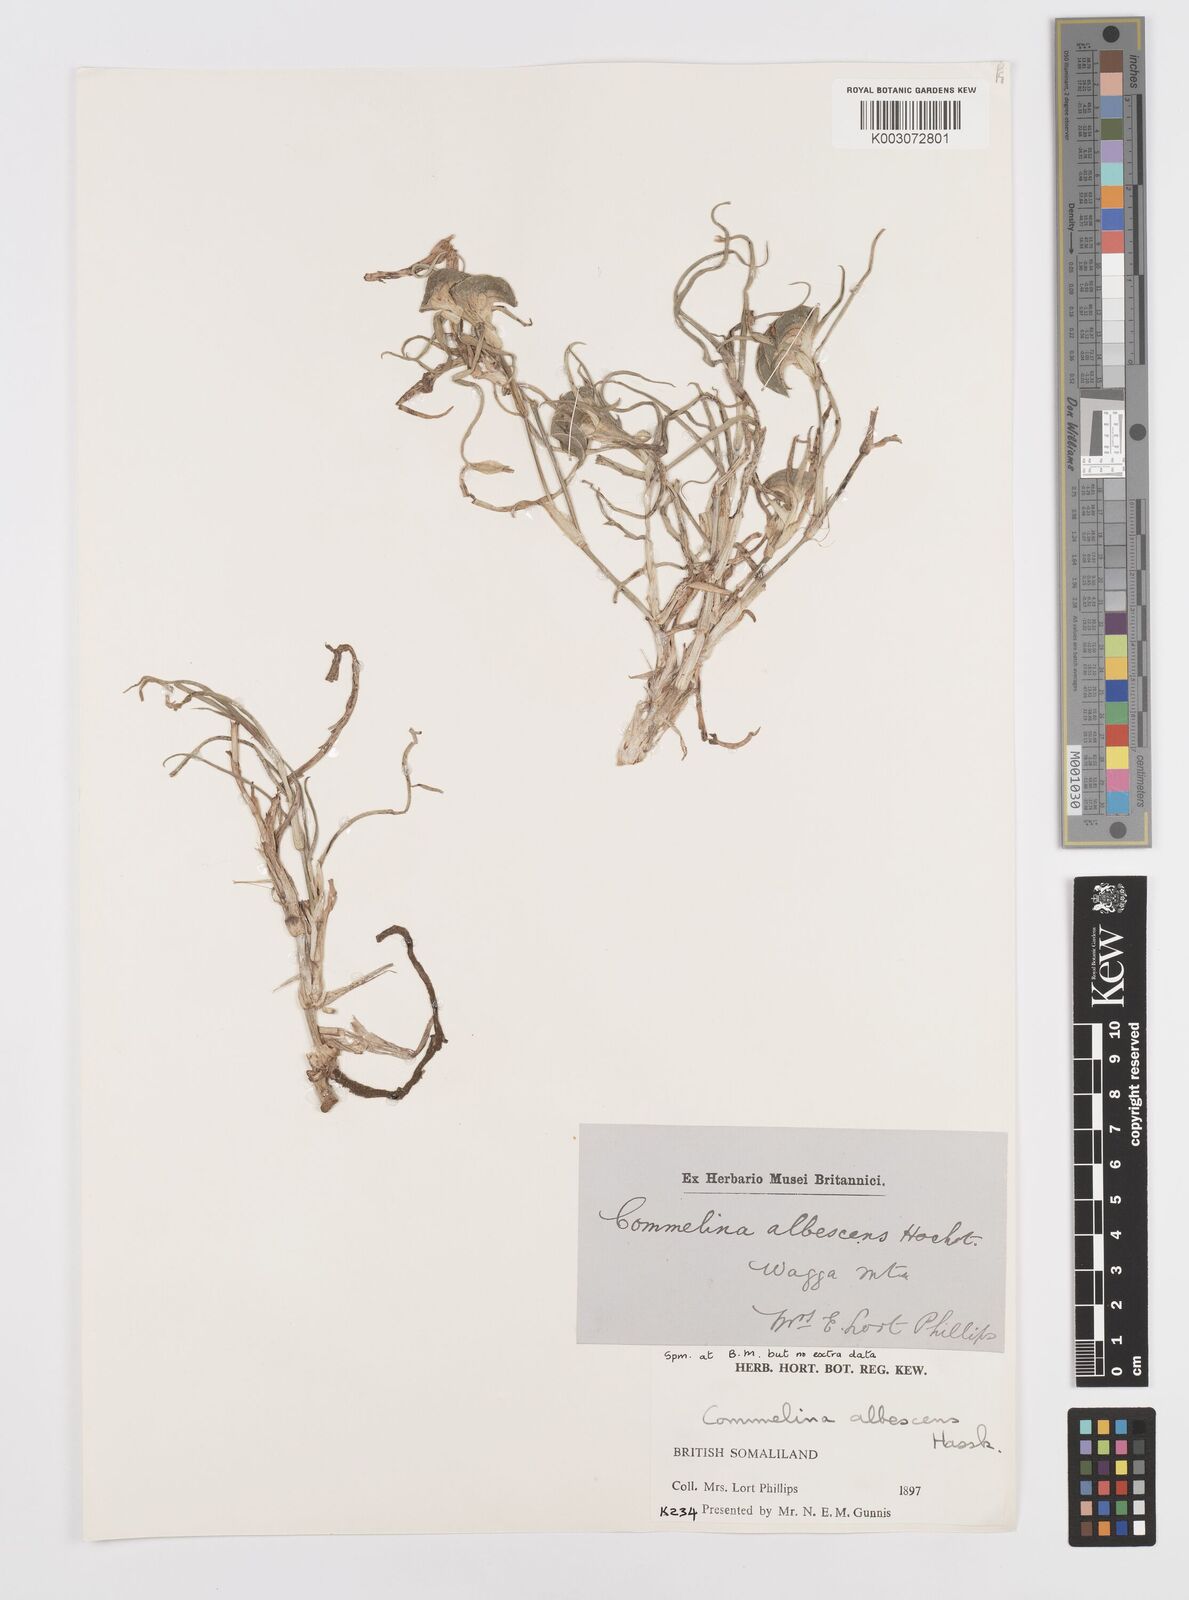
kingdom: Plantae
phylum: Tracheophyta
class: Liliopsida
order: Commelinales
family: Commelinaceae
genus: Commelina
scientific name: Commelina albescens
